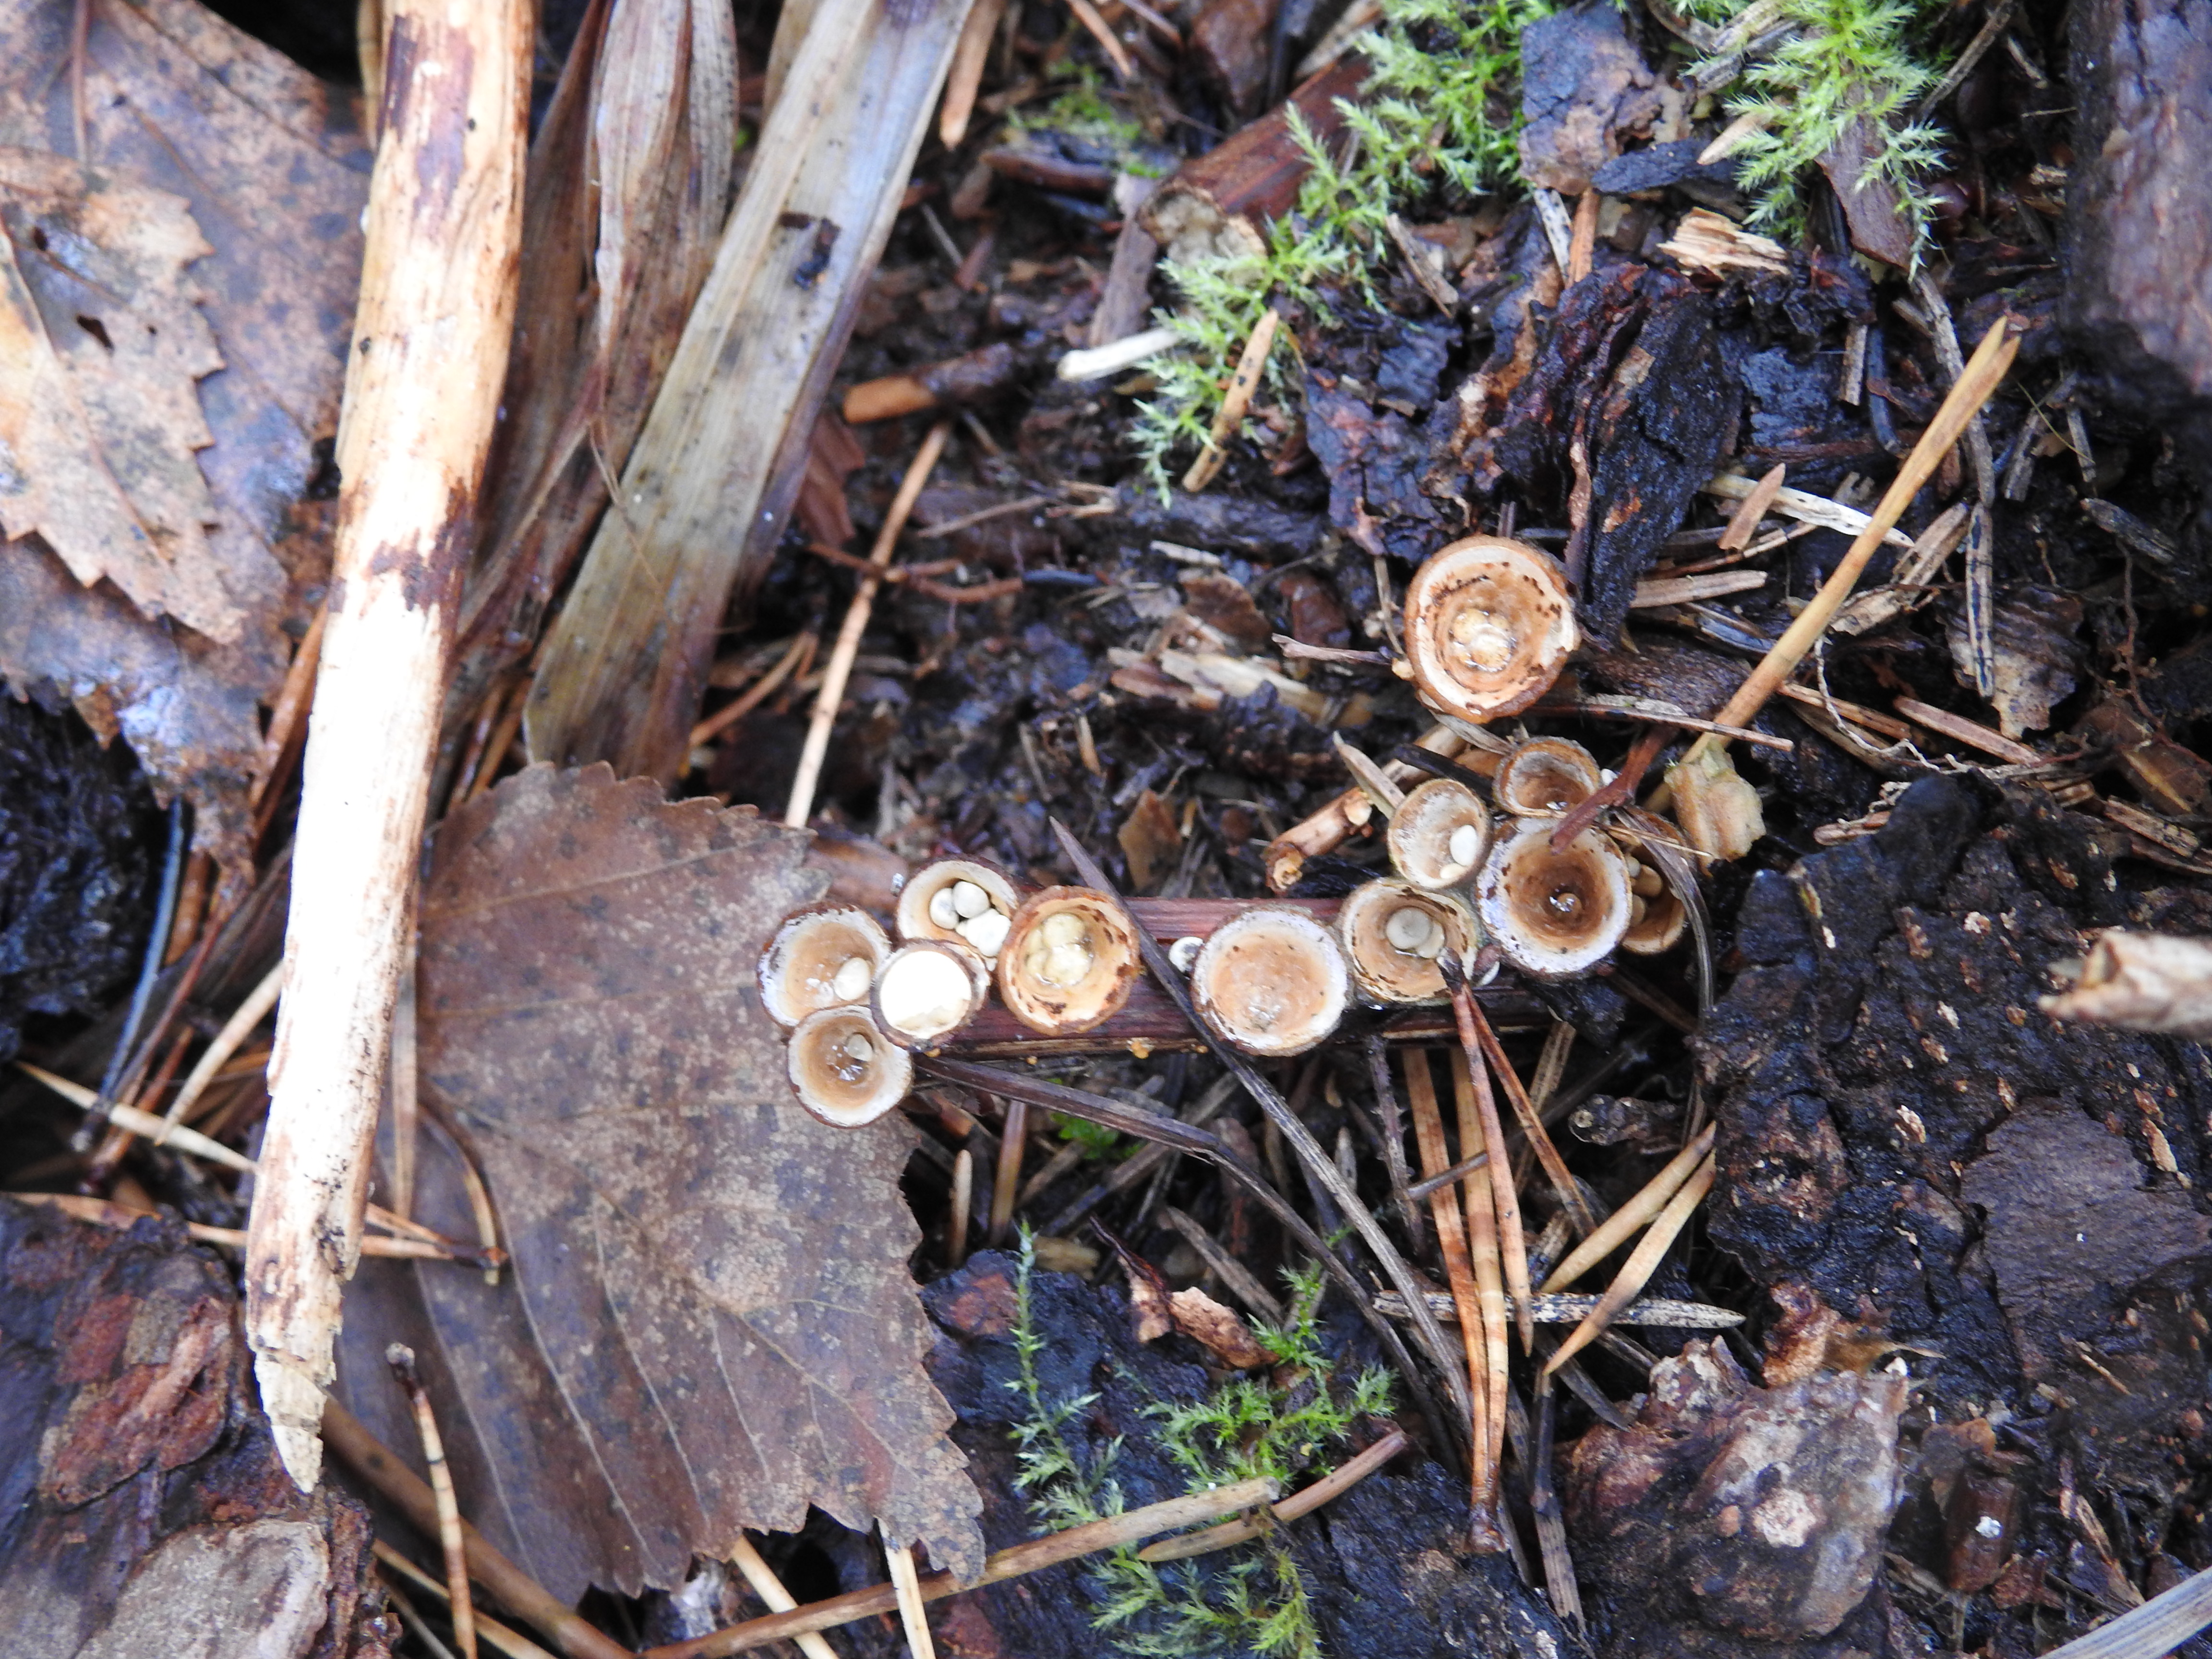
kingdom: Fungi
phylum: Basidiomycota
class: Agaricomycetes
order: Agaricales
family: Nidulariaceae
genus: Crucibulum
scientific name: Crucibulum laeve
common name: Common bird's nest
